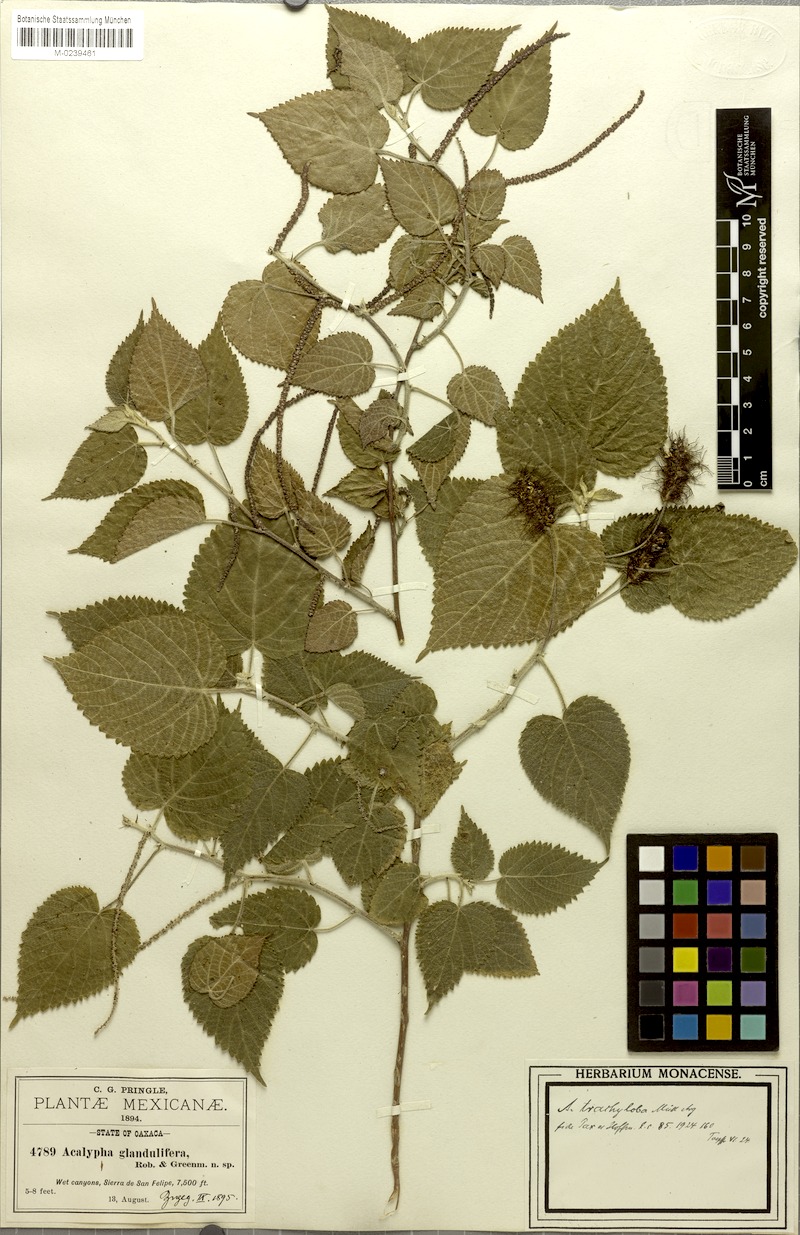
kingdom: Plantae
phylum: Tracheophyta
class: Magnoliopsida
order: Malpighiales
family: Euphorbiaceae
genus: Acalypha
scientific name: Acalypha trachyloba
